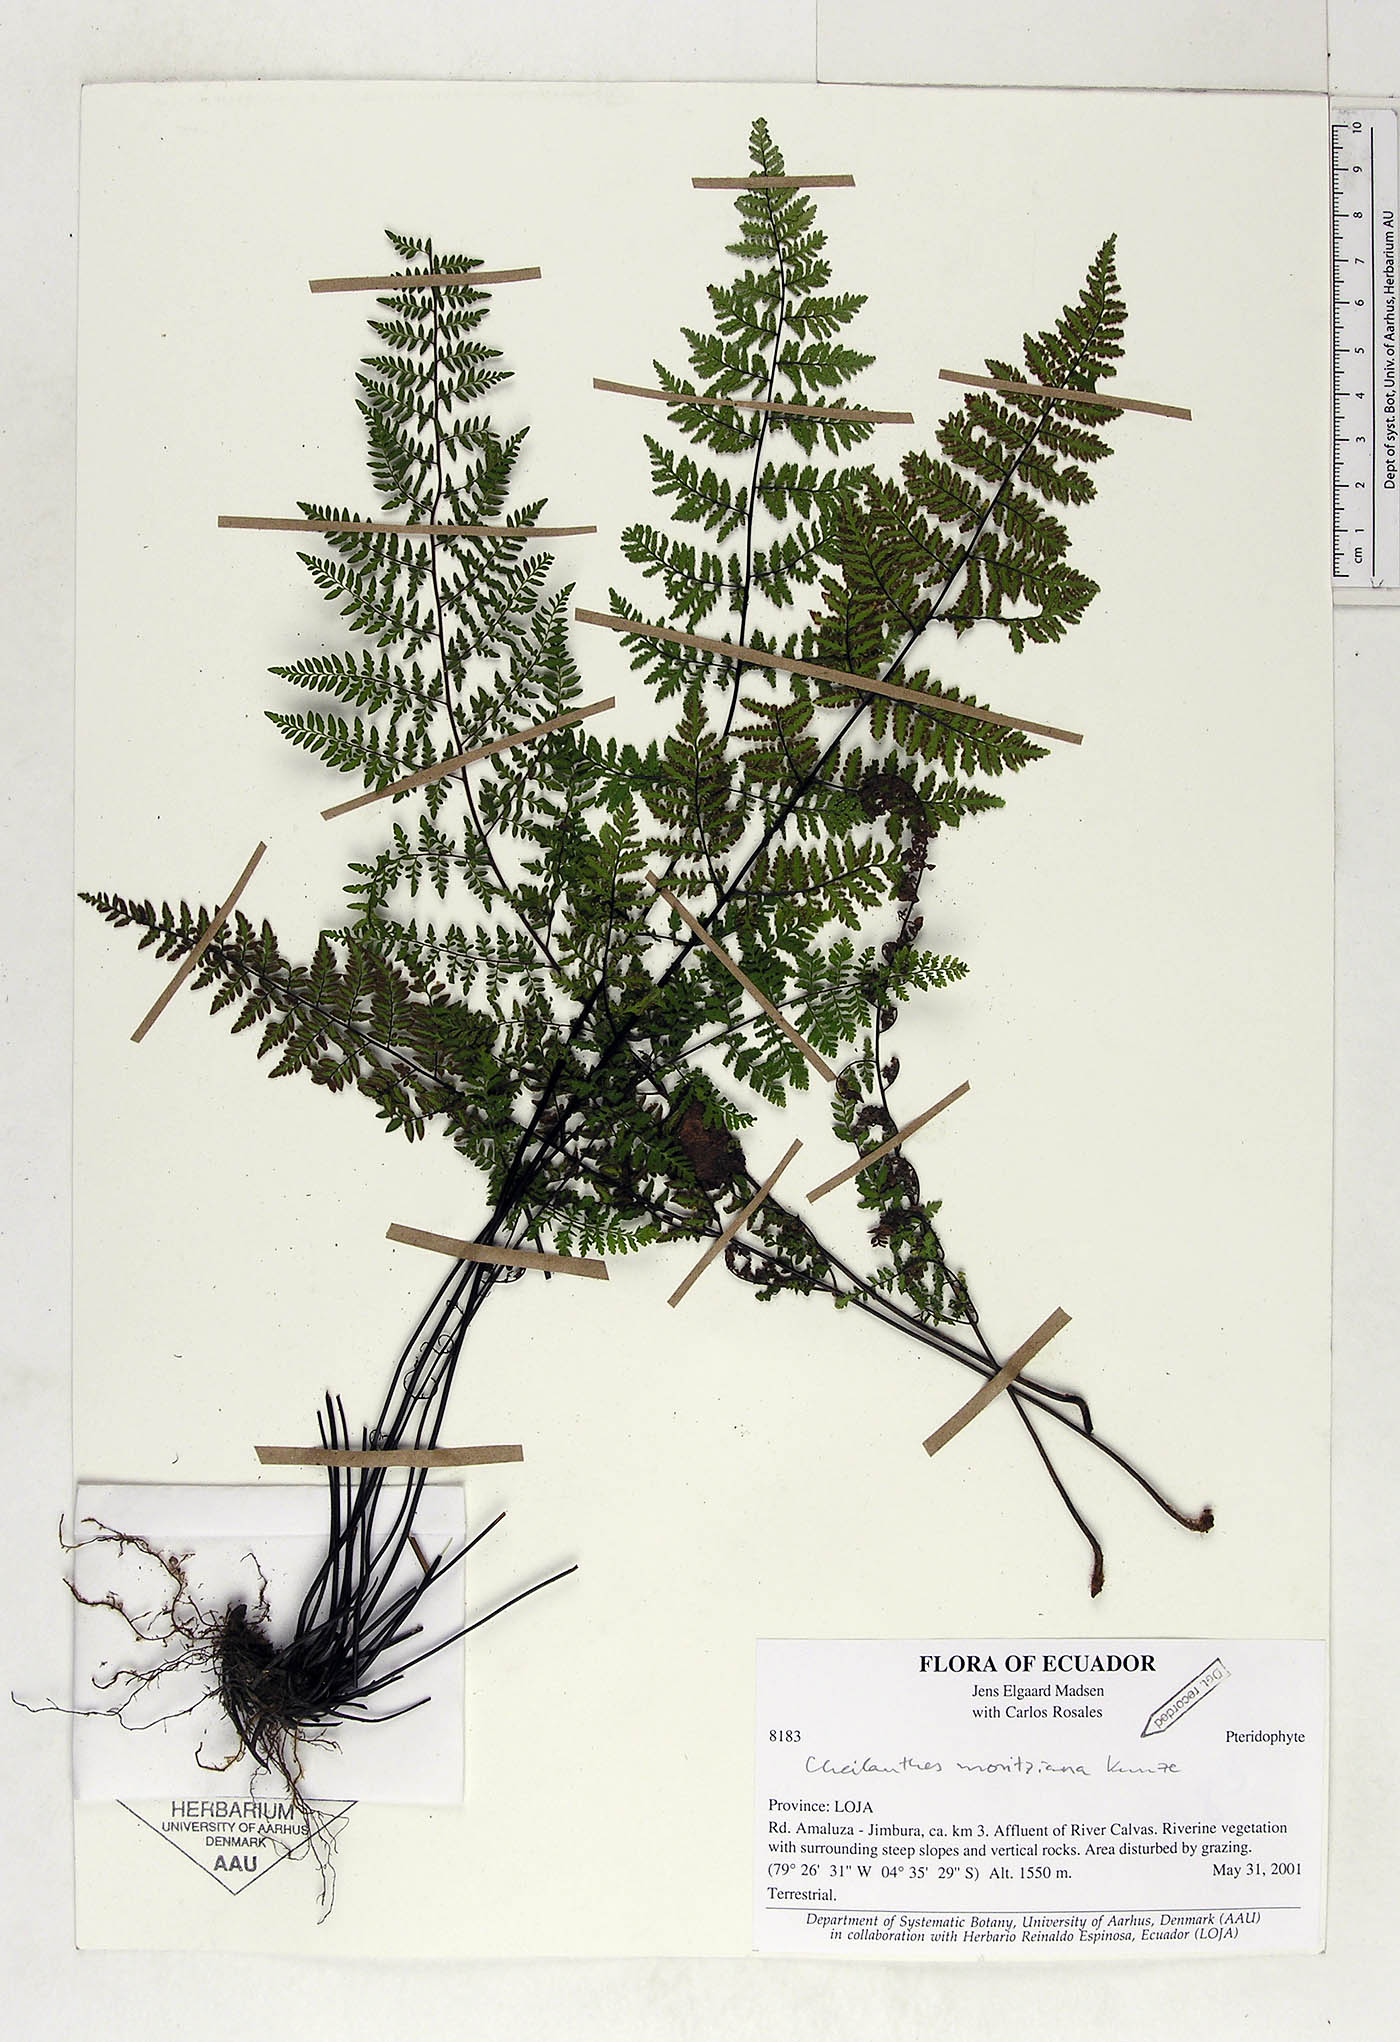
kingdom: Plantae
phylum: Tracheophyta
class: Polypodiopsida
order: Polypodiales
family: Pteridaceae
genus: Myriopteris
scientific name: Myriopteris moritziana
